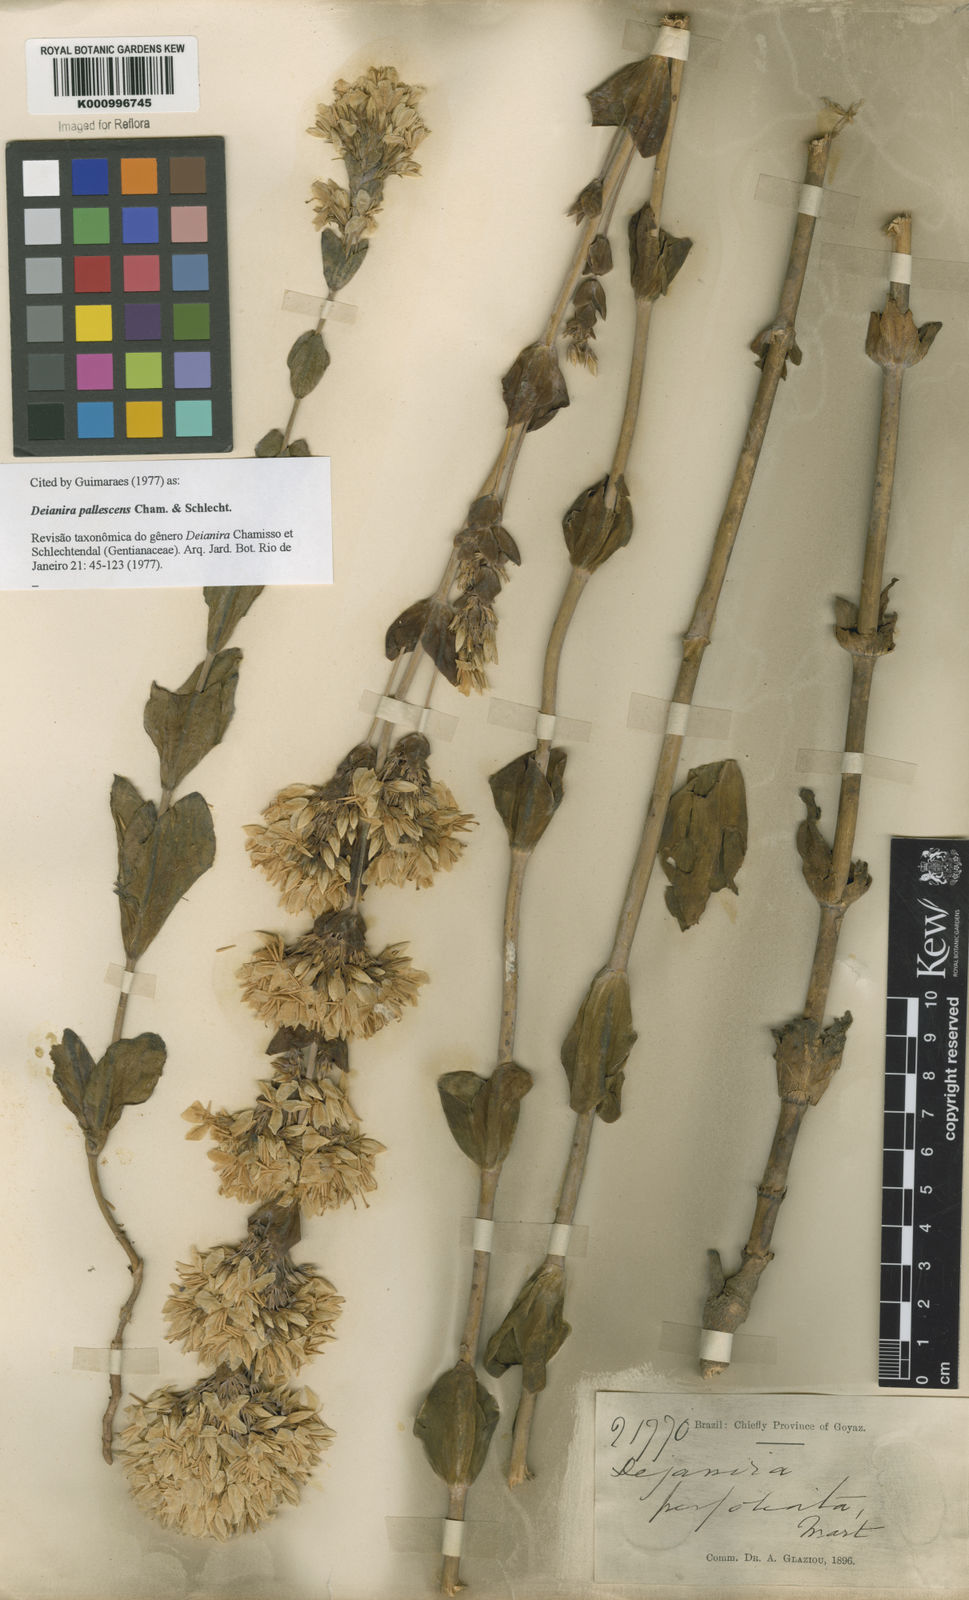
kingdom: Plantae
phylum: Tracheophyta
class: Magnoliopsida
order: Gentianales
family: Gentianaceae
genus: Deianira
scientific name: Deianira pallescens
